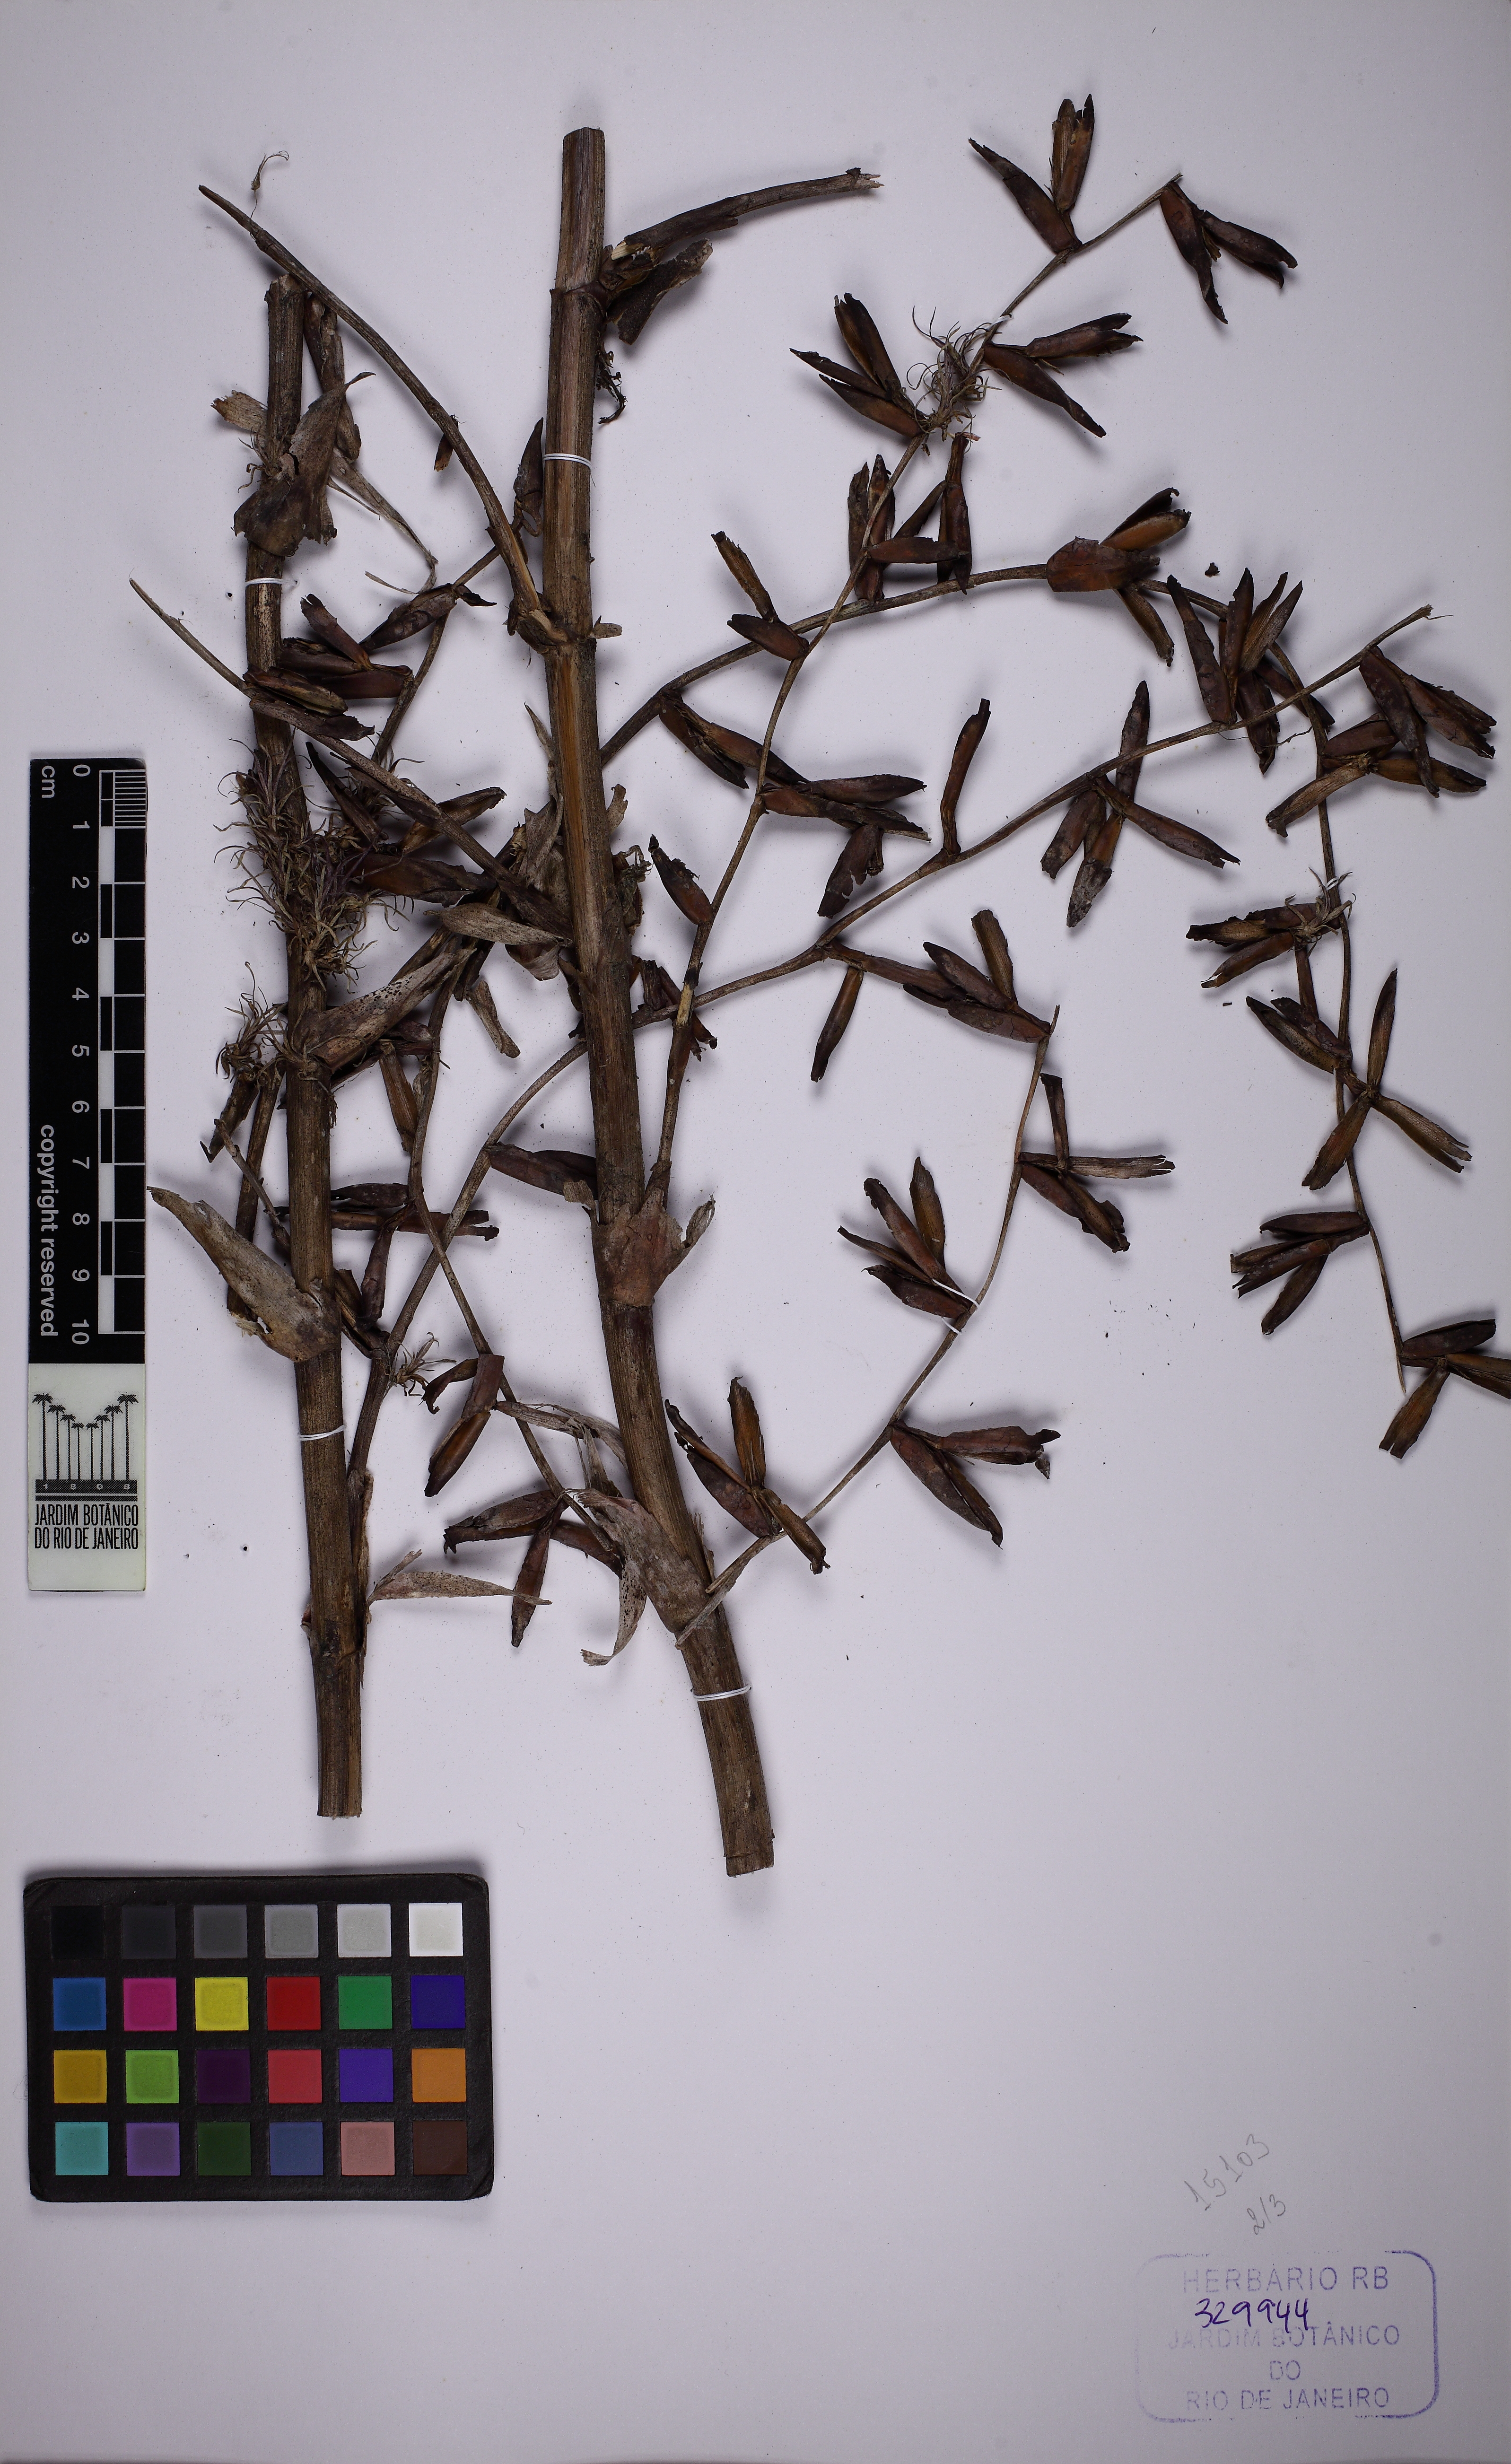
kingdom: Plantae
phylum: Tracheophyta
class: Liliopsida
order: Poales
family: Bromeliaceae
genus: Vriesea
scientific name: Vriesea procera
